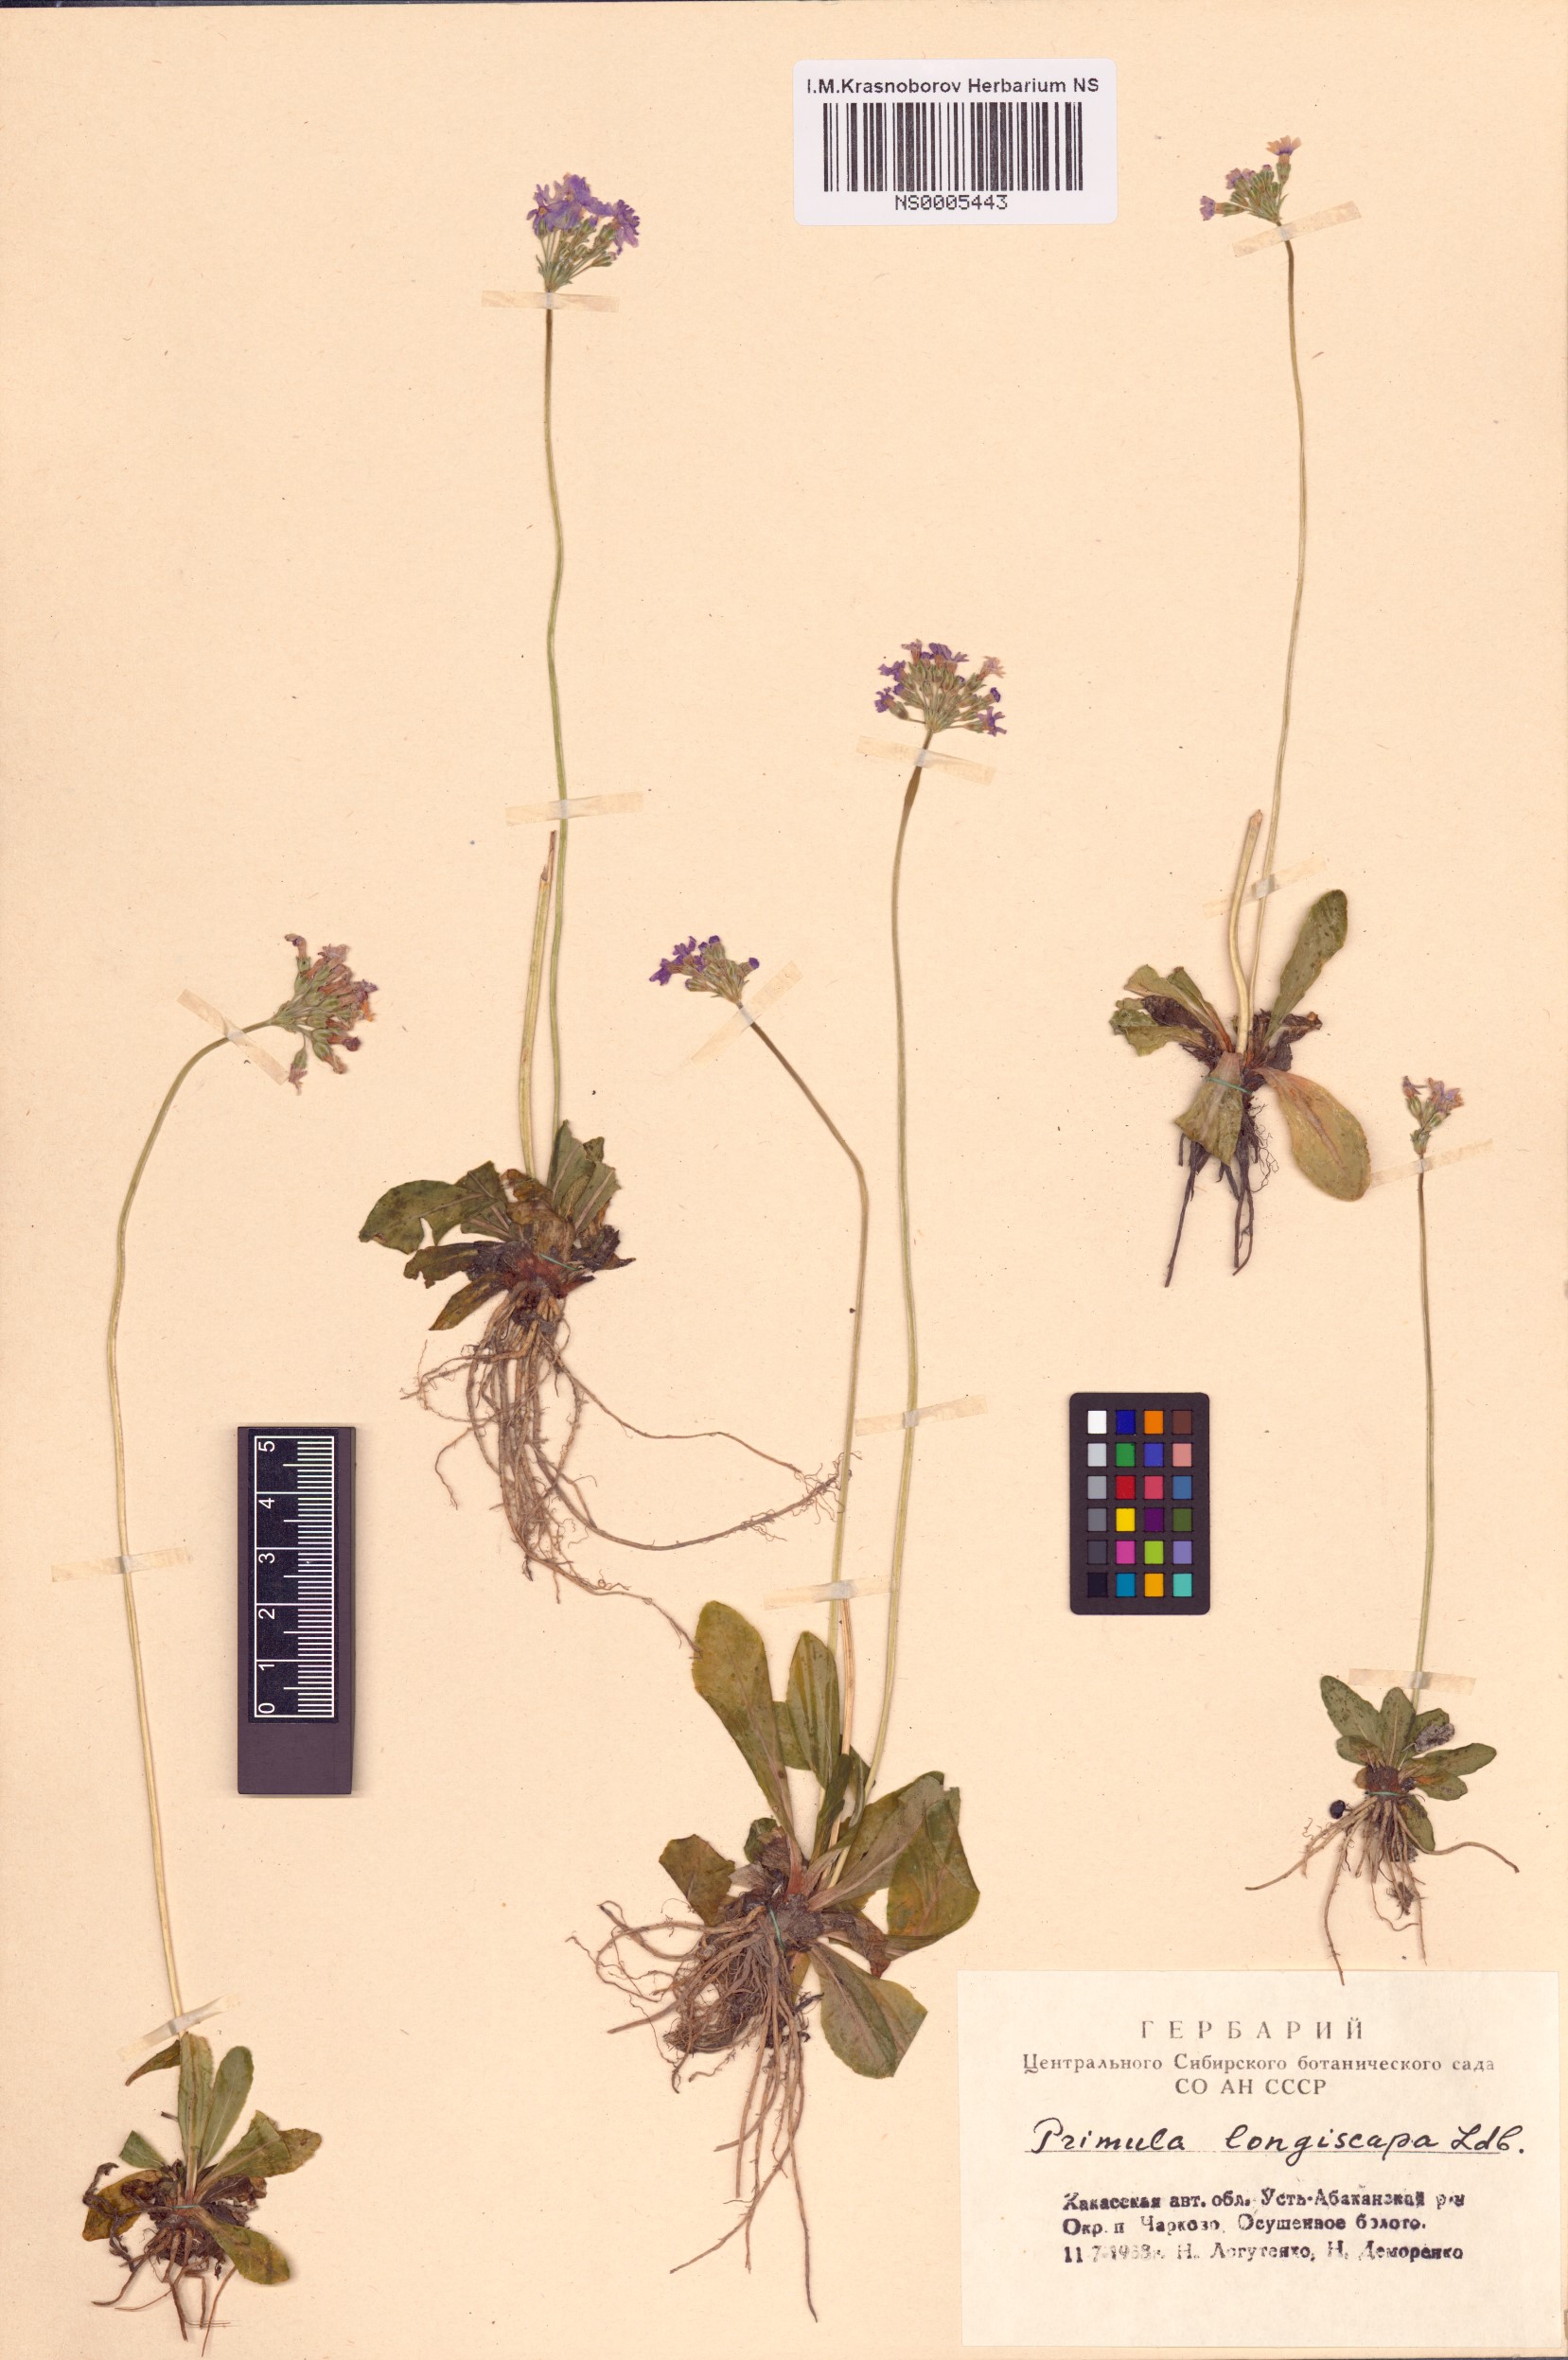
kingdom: Plantae
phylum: Tracheophyta
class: Magnoliopsida
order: Ericales
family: Primulaceae
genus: Primula
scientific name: Primula longiscapa
